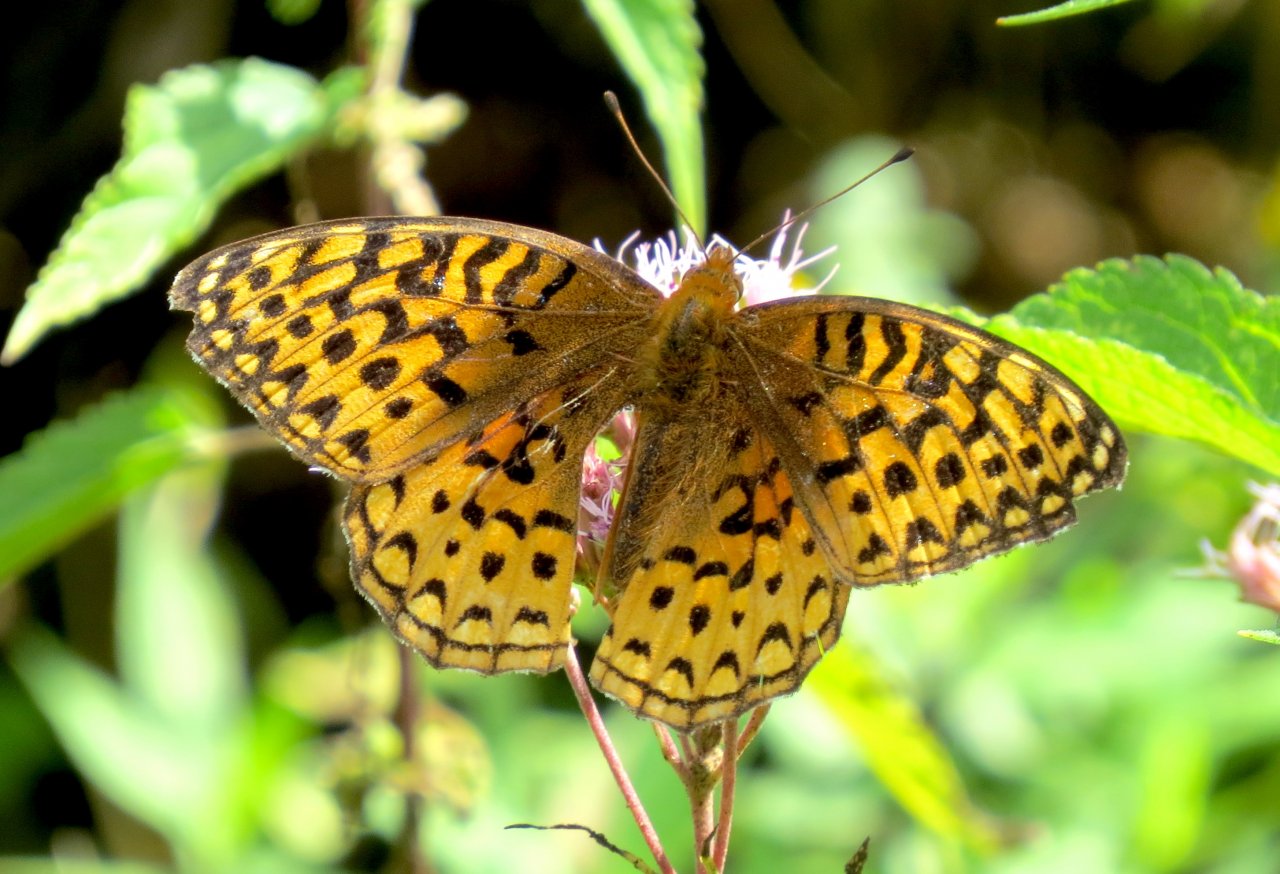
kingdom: Animalia
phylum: Arthropoda
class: Insecta
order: Lepidoptera
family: Nymphalidae
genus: Speyeria
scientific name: Speyeria aphrodite
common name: Aphrodite Fritillary
